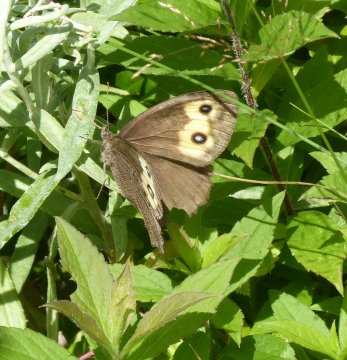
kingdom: Animalia
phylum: Arthropoda
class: Insecta
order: Lepidoptera
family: Nymphalidae
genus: Cercyonis
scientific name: Cercyonis pegala
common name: Common Wood-Nymph
